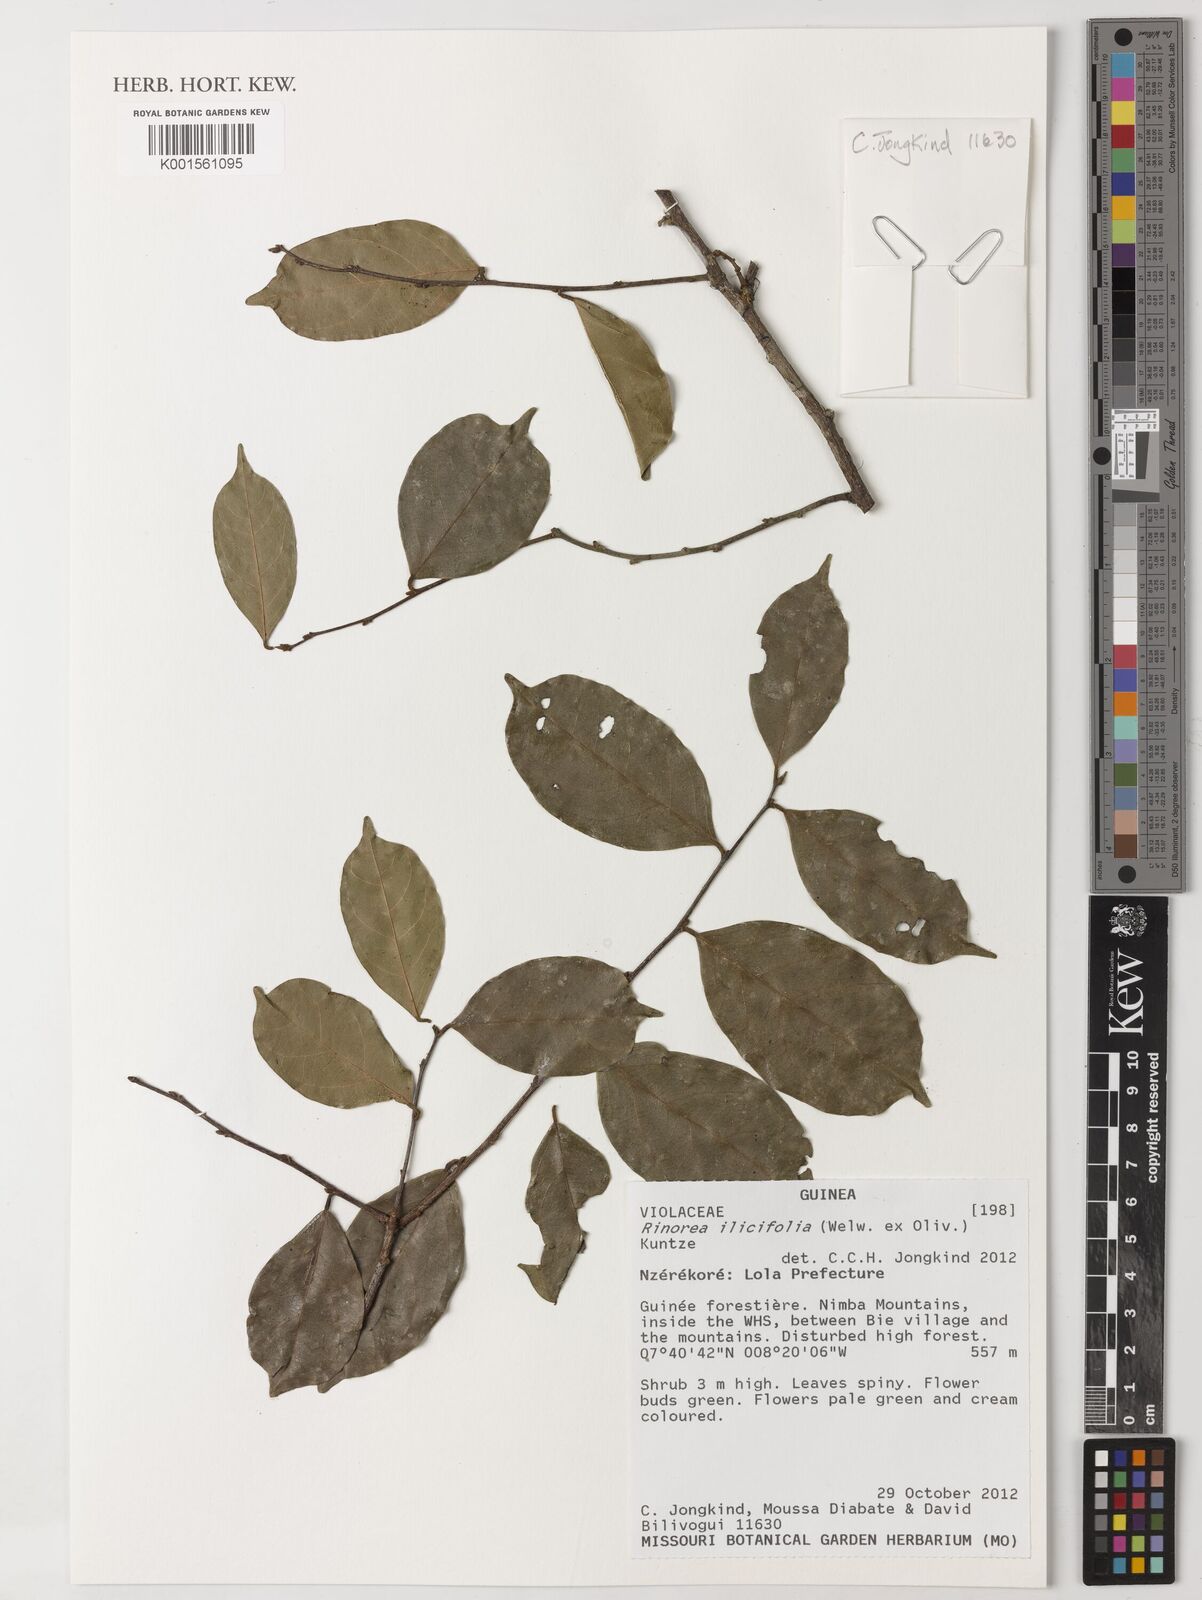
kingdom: Plantae
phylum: Tracheophyta
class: Magnoliopsida
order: Malpighiales
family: Violaceae
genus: Rinorea
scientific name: Rinorea ilicifolia
